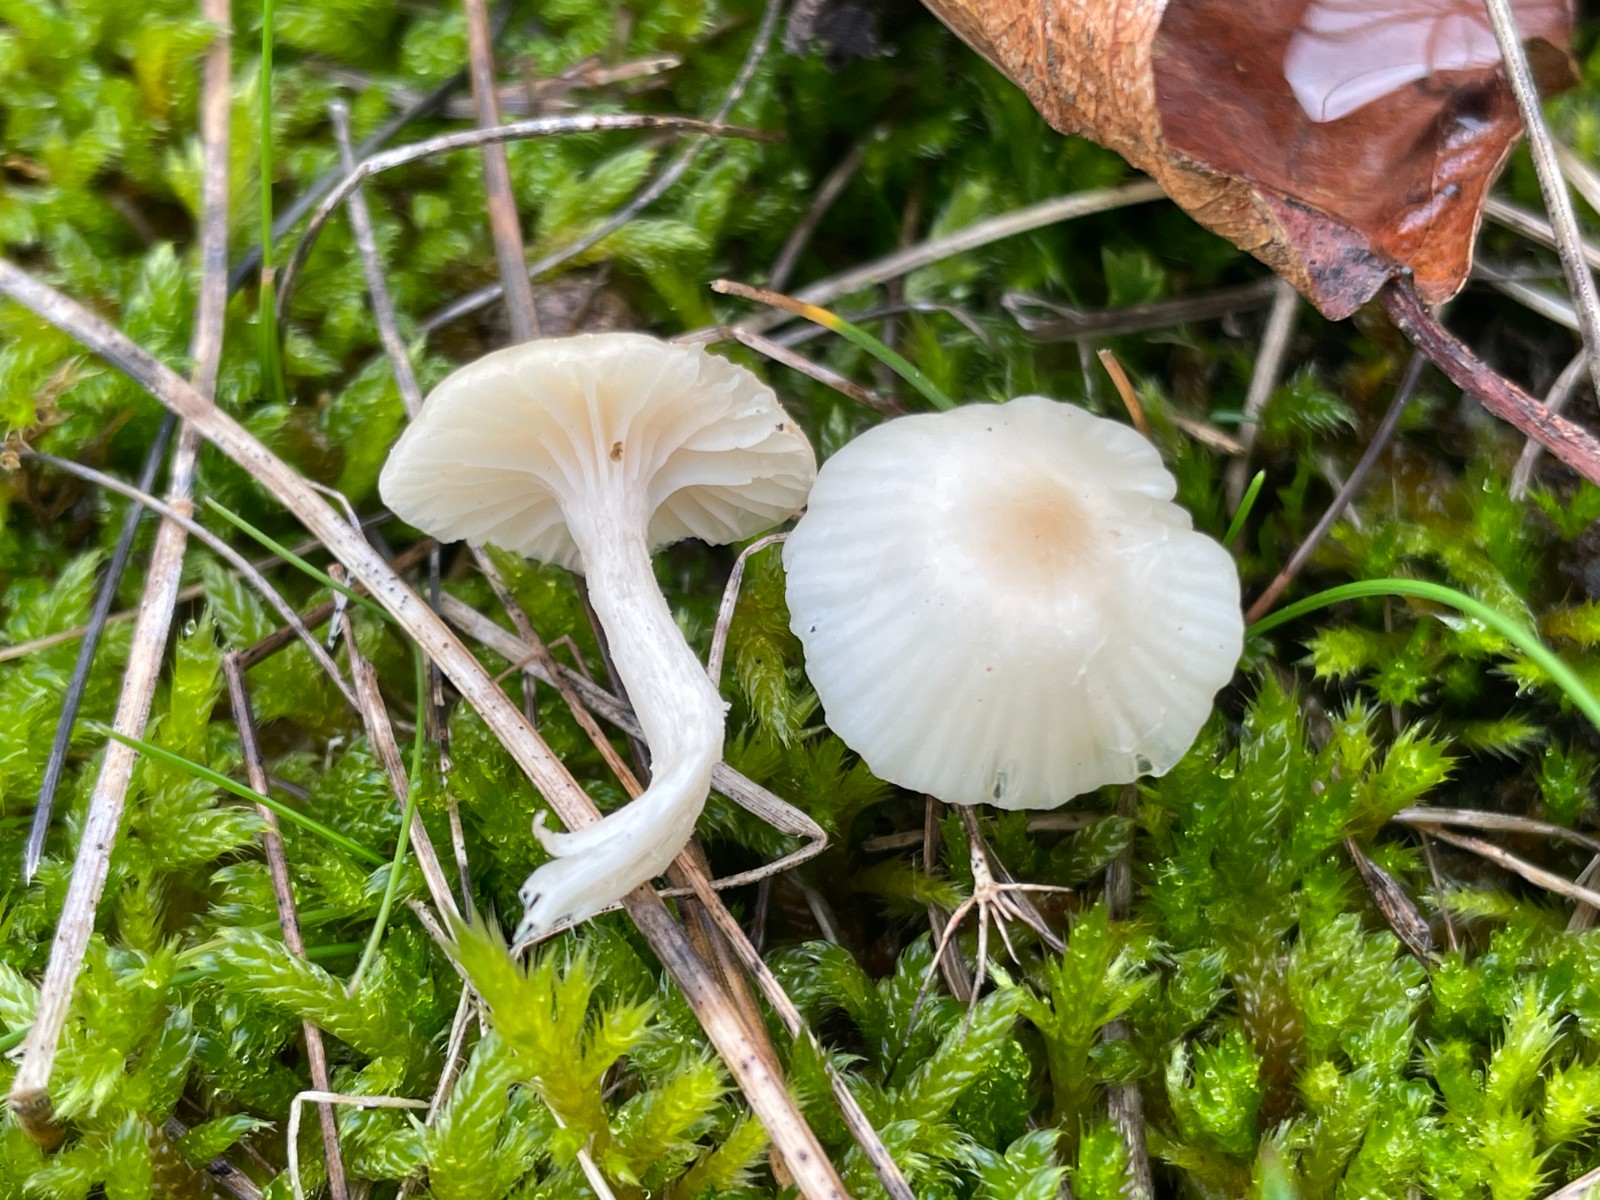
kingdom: Fungi
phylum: Basidiomycota
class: Agaricomycetes
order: Agaricales
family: Hygrophoraceae
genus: Cuphophyllus
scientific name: Cuphophyllus virgineus
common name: brunøjet vokshat
